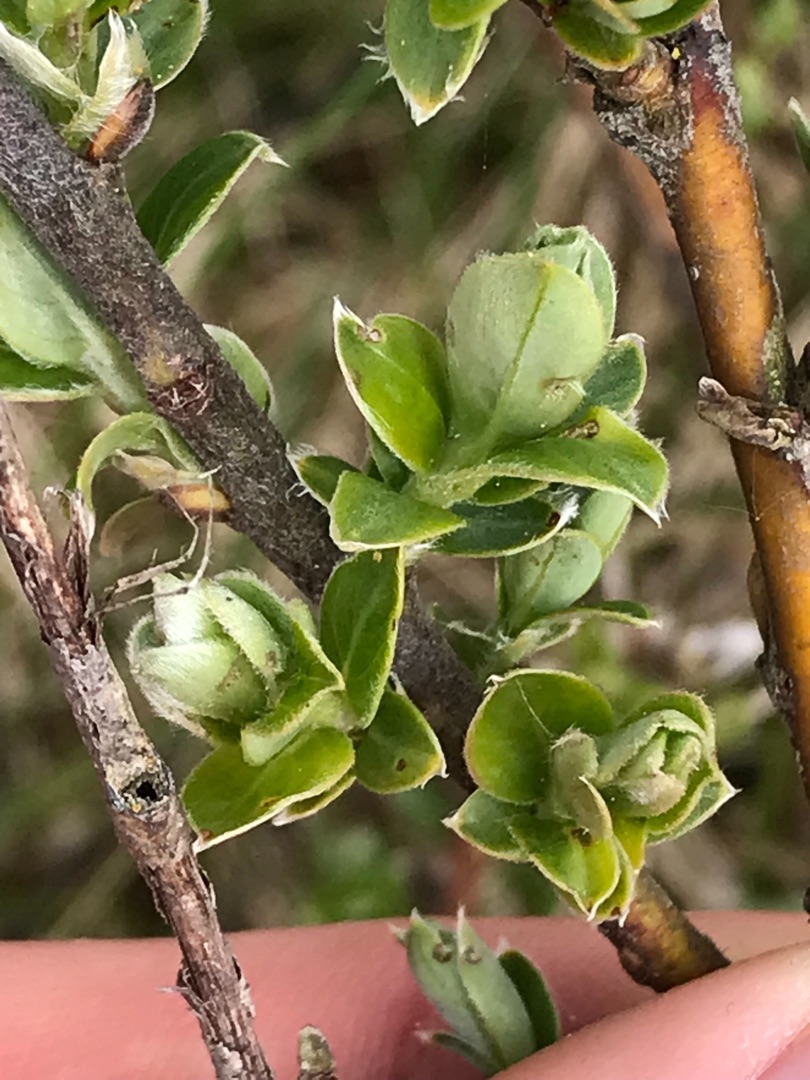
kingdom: Plantae
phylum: Tracheophyta
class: Magnoliopsida
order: Malpighiales
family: Salicaceae
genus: Salix
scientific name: Salix repens
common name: Krybende pil
